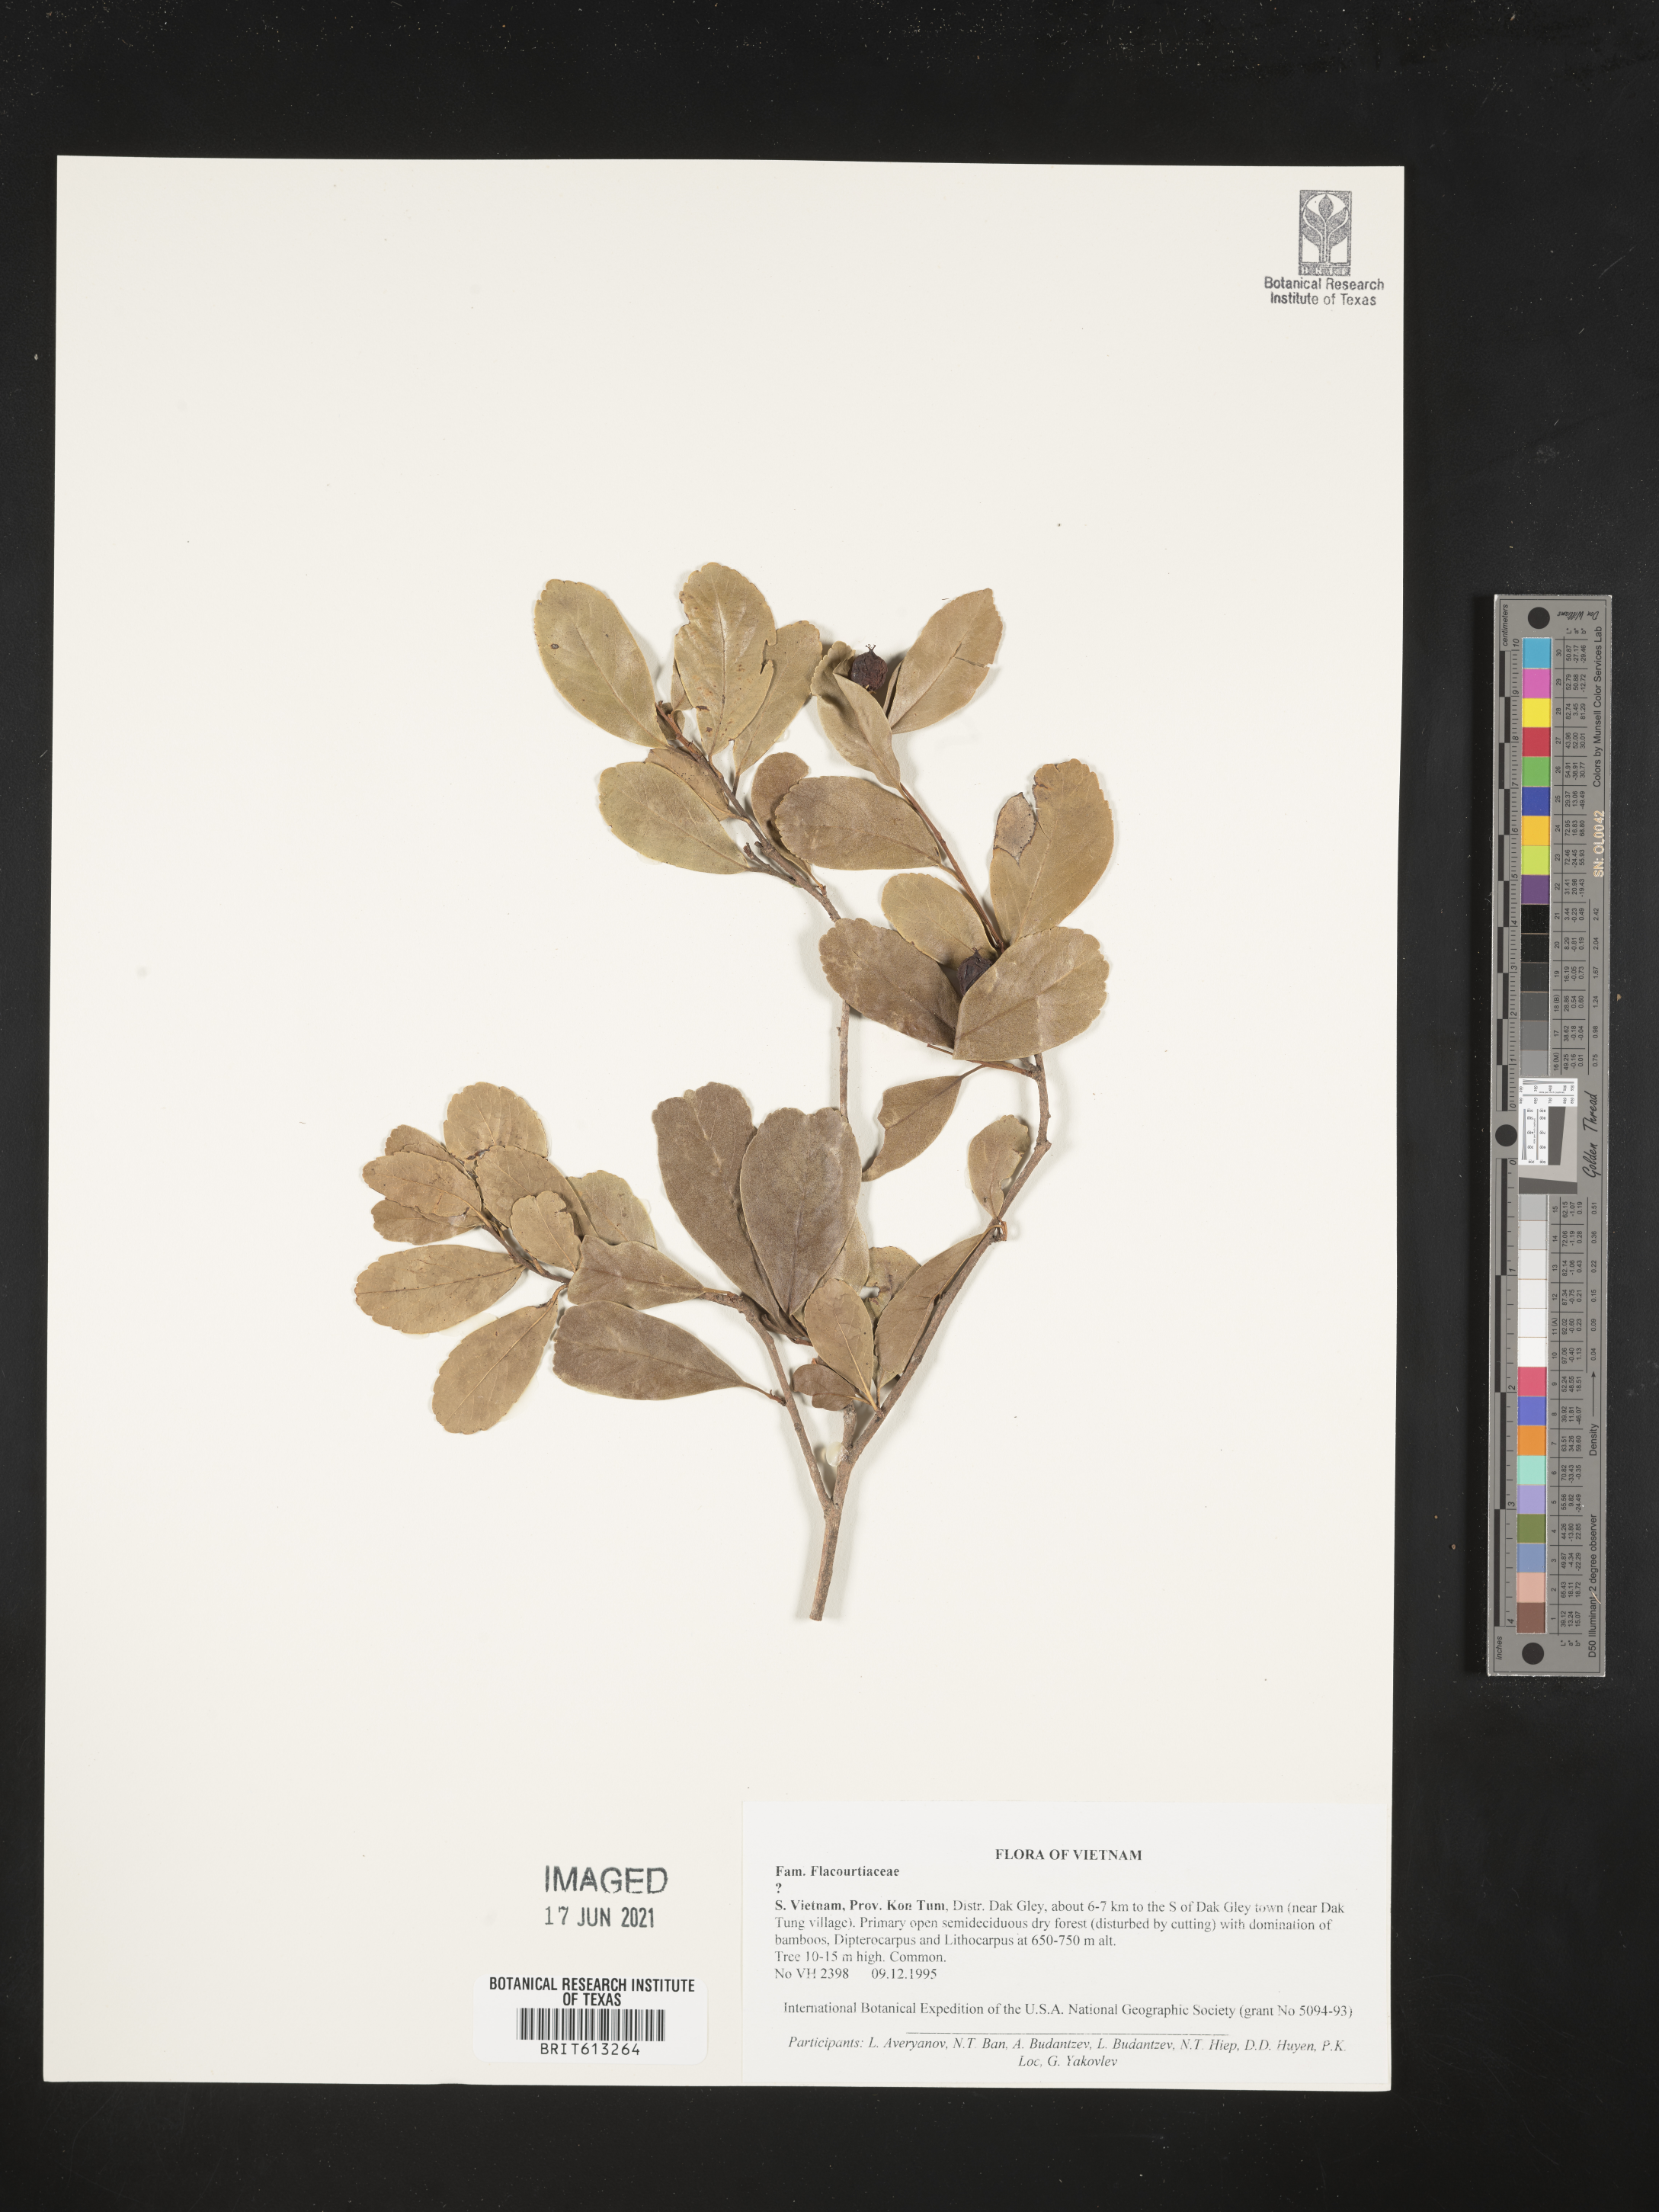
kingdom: Plantae
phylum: Tracheophyta
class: Magnoliopsida
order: Malpighiales
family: Flacourtiaceae
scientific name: Flacourtiaceae
